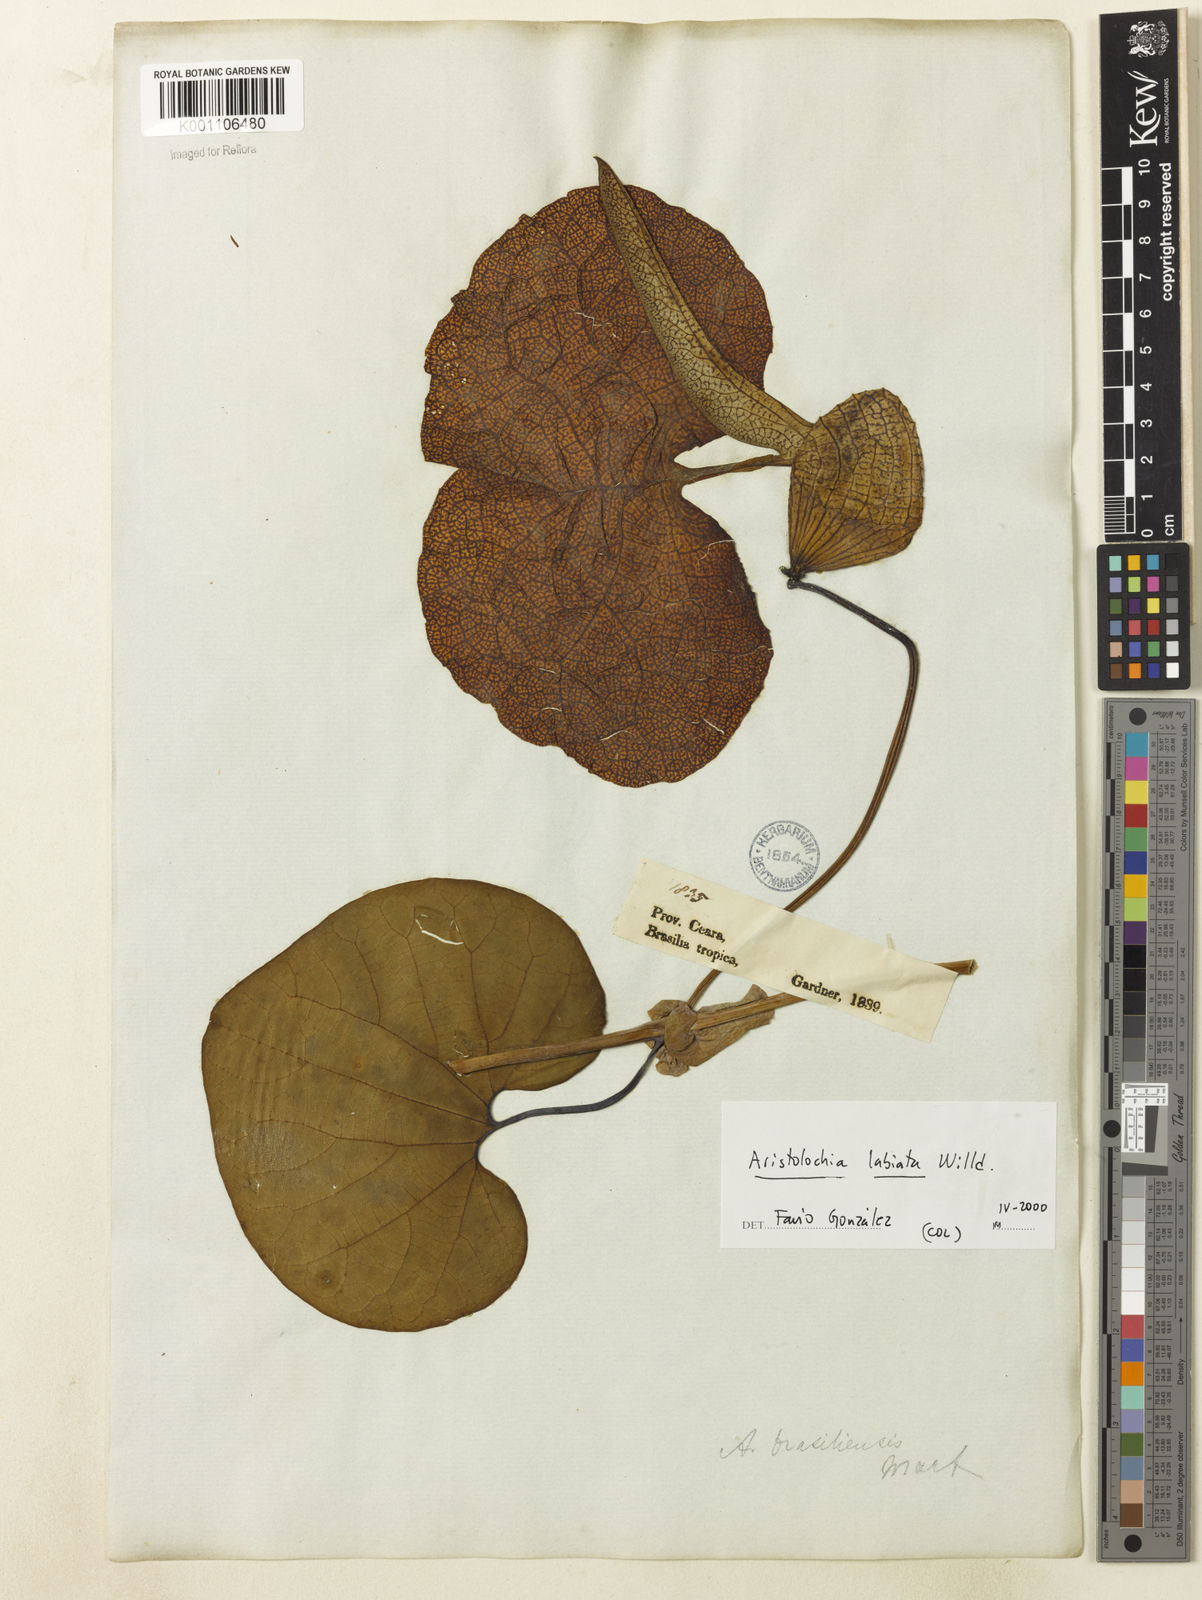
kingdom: Plantae
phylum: Tracheophyta
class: Magnoliopsida
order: Piperales
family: Aristolochiaceae
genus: Aristolochia
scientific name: Aristolochia labiata
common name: Mottled dutchman's pipe
